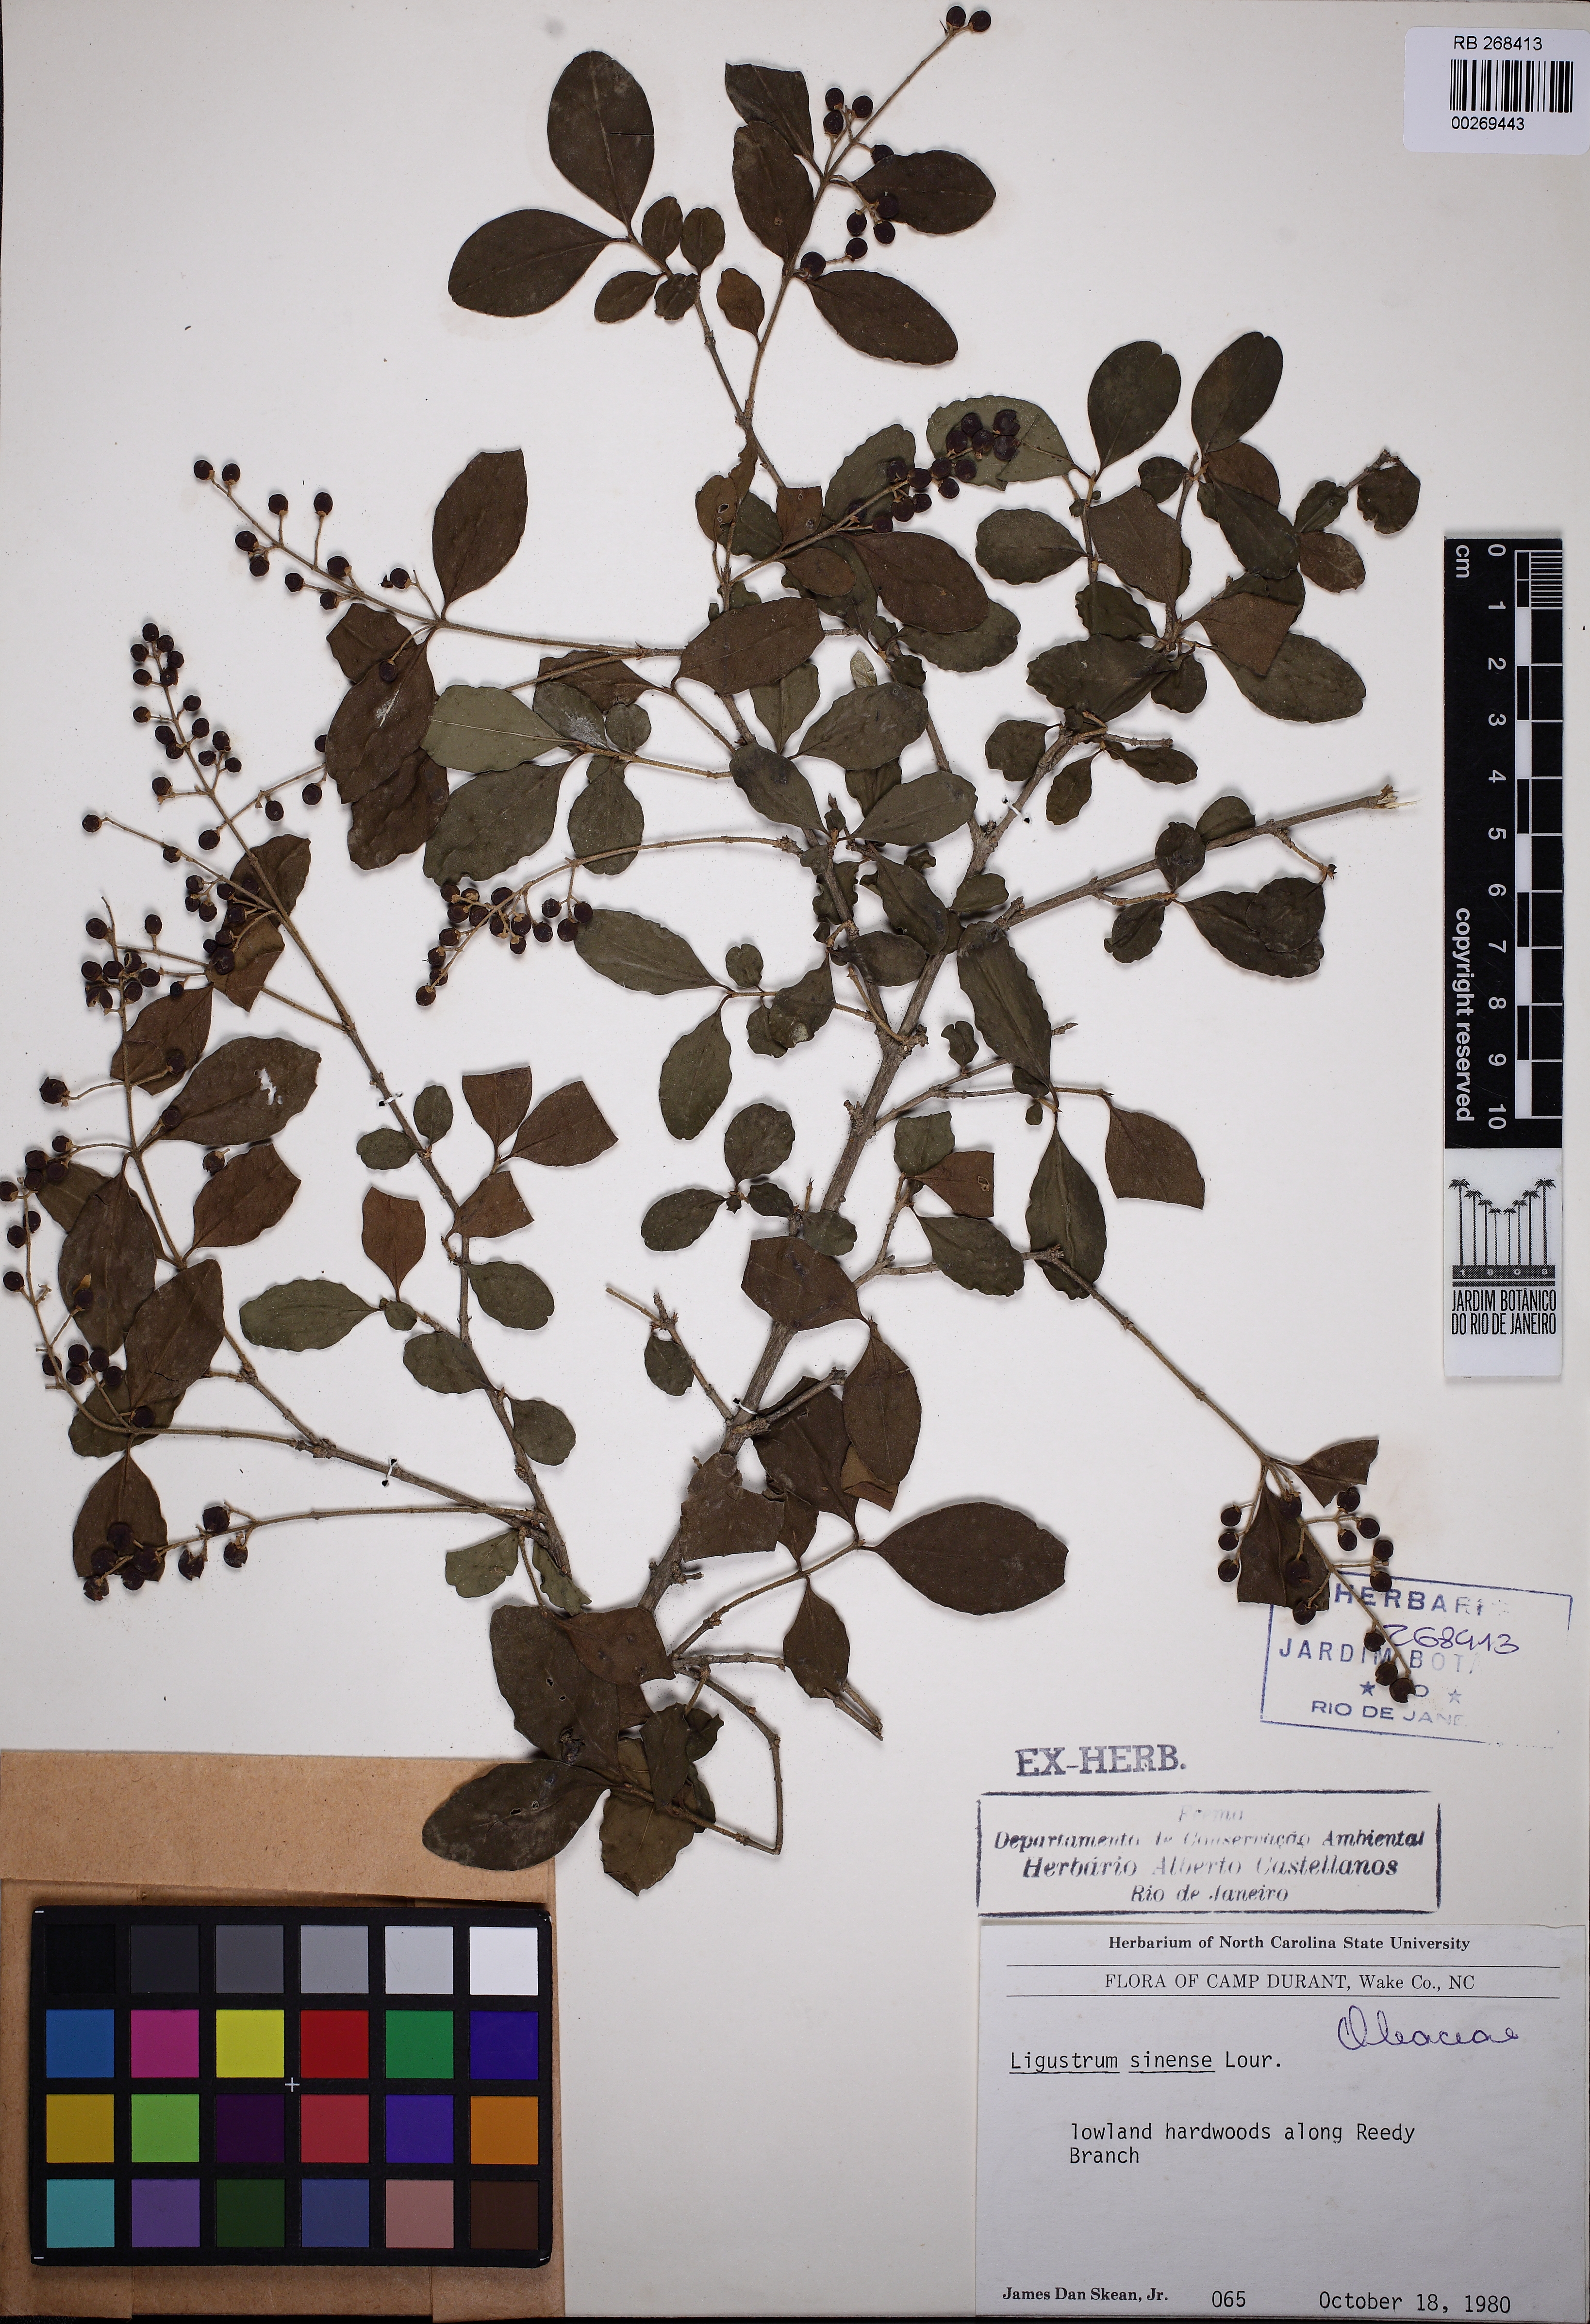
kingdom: Plantae
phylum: Tracheophyta
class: Magnoliopsida
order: Lamiales
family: Oleaceae
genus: Ligustrum
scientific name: Ligustrum sinense
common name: Chinese privet
